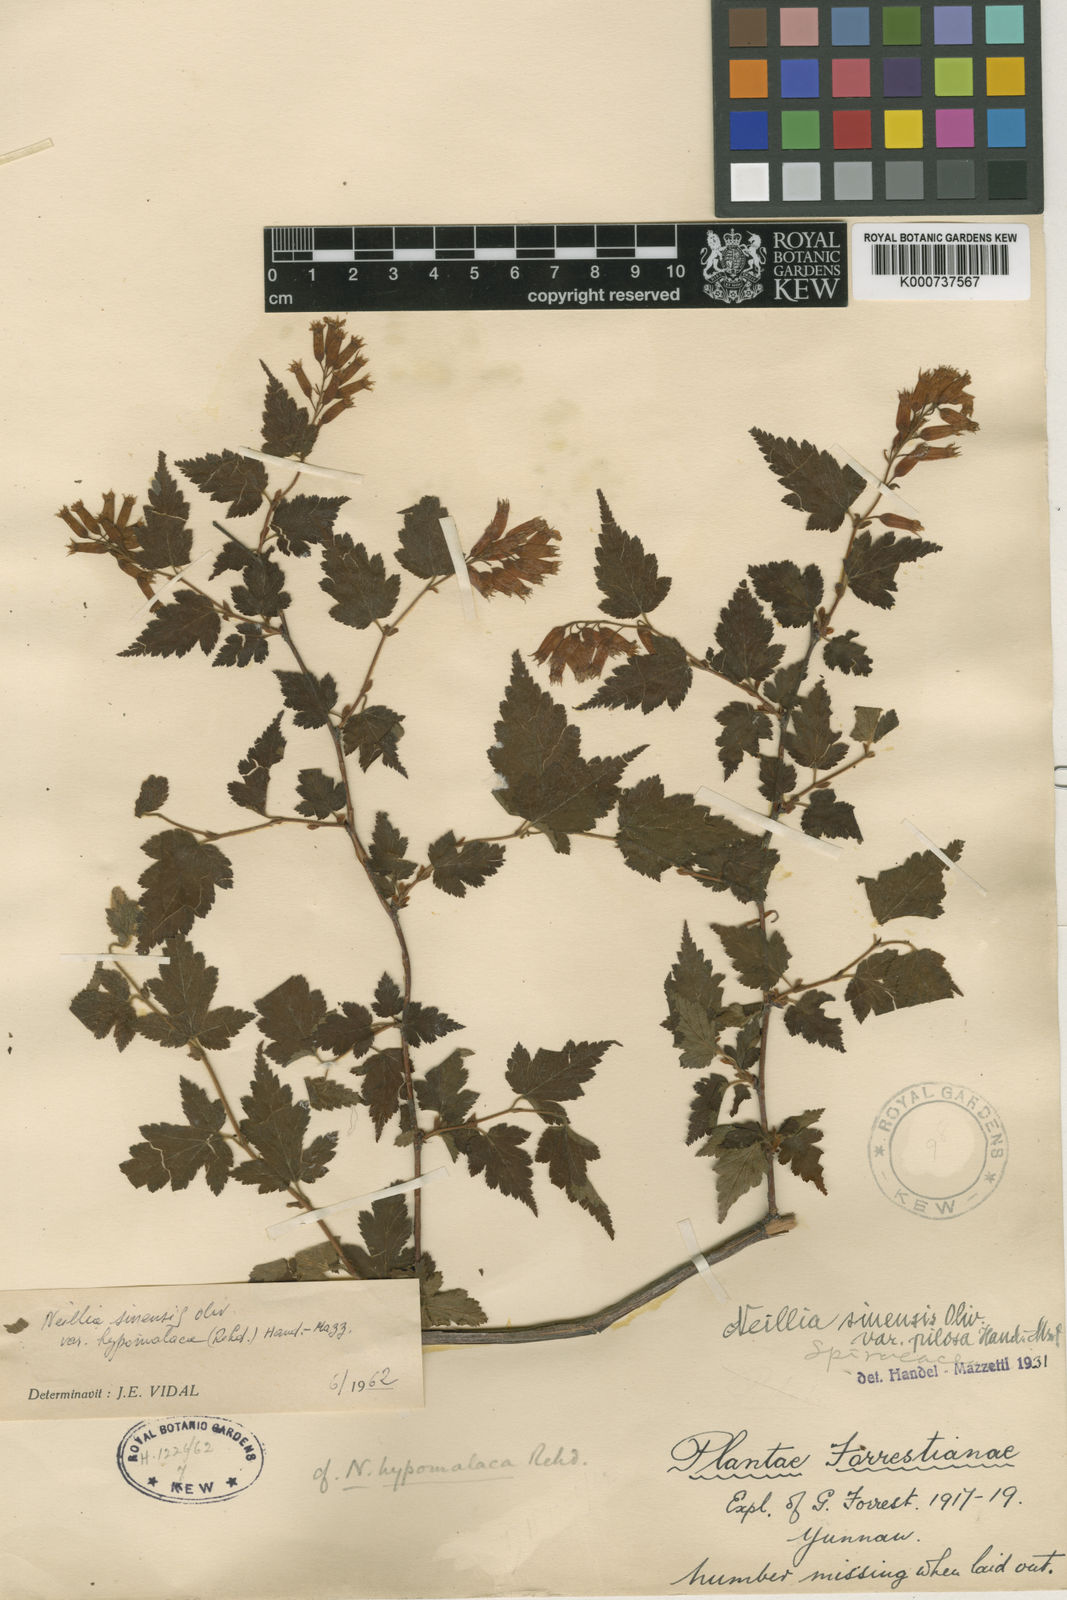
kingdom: Plantae
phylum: Tracheophyta
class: Magnoliopsida
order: Rosales
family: Rosaceae
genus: Neillia
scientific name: Neillia sinensis
